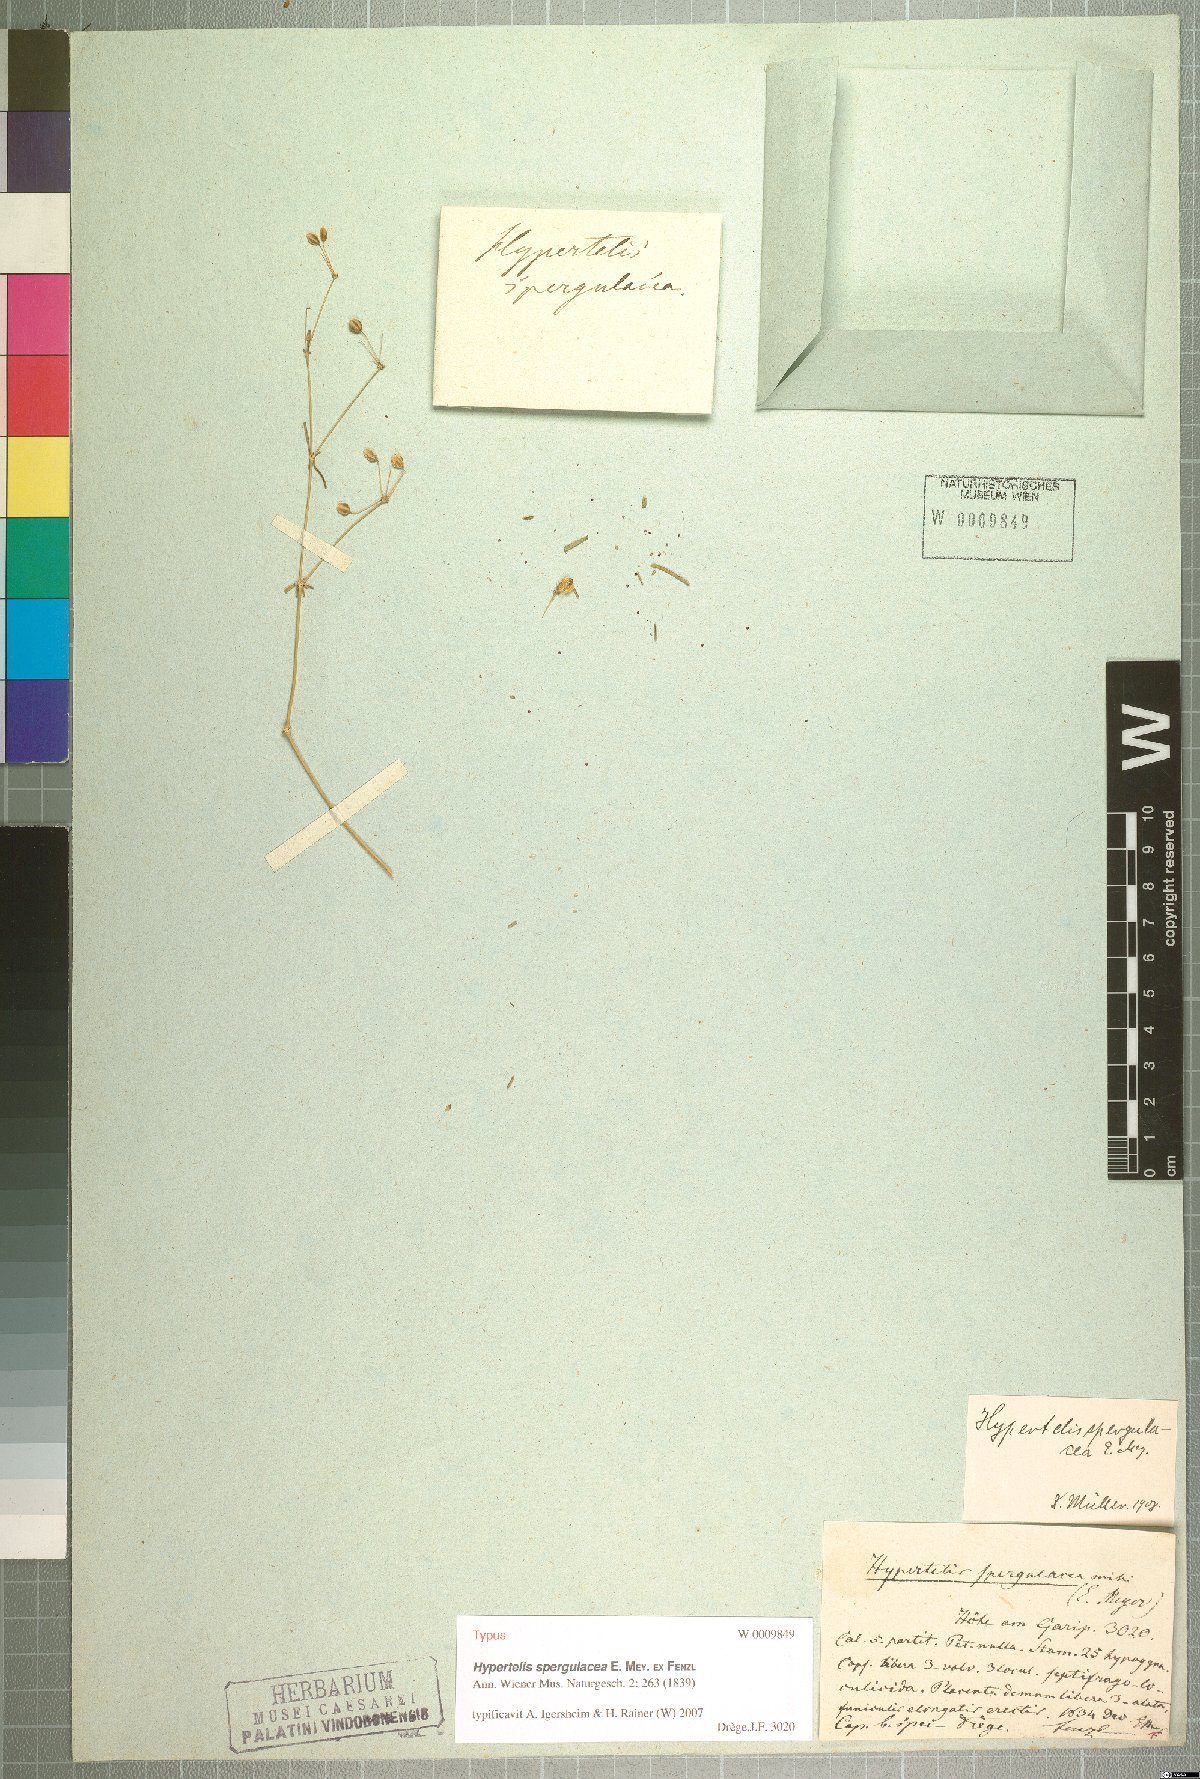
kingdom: Plantae
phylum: Tracheophyta
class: Magnoliopsida
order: Caryophyllales
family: Molluginaceae
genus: Hypertelis
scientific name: Hypertelis spergulacea
